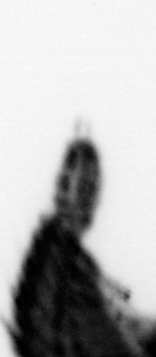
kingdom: Animalia
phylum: Annelida
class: Polychaeta
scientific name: Polychaeta
